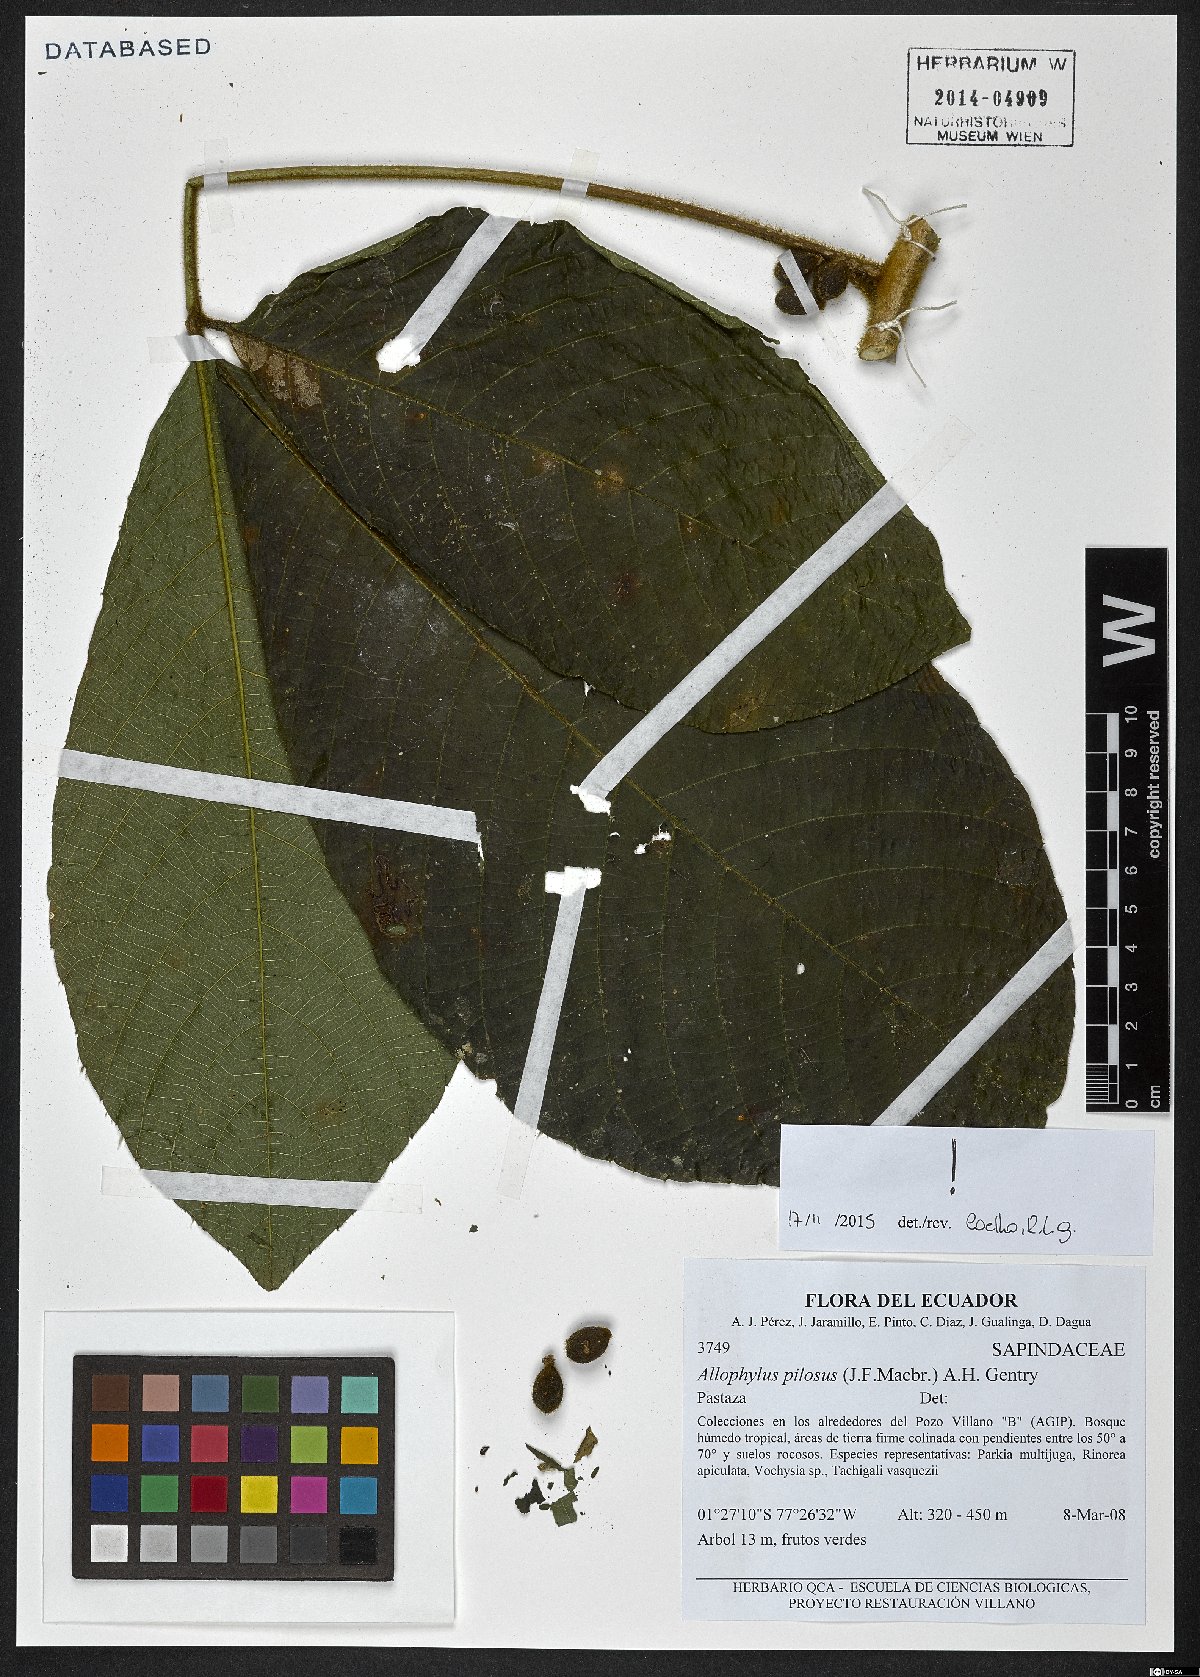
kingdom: Plantae
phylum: Tracheophyta
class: Magnoliopsida
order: Sapindales
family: Sapindaceae
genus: Allophylus
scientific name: Allophylus pilosus
